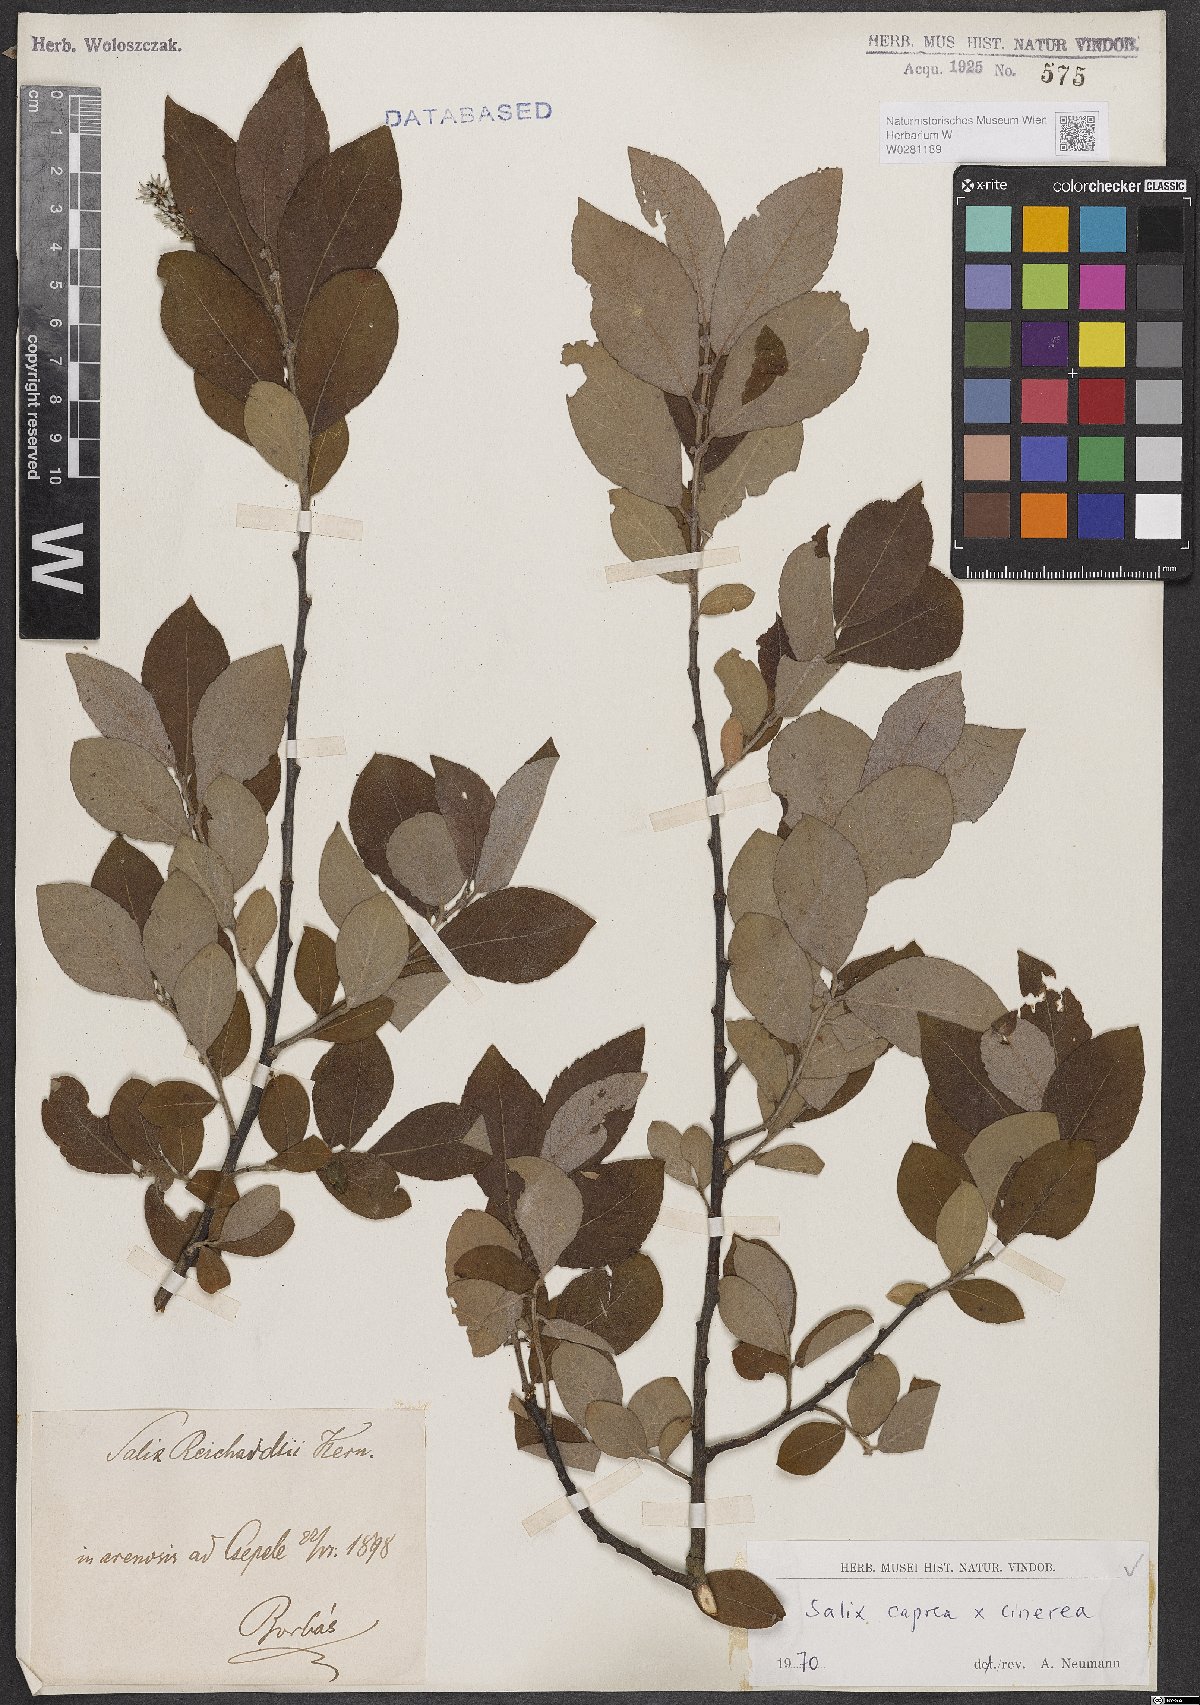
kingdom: Plantae
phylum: Tracheophyta
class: Magnoliopsida
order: Malpighiales
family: Salicaceae
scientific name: Salicaceae
